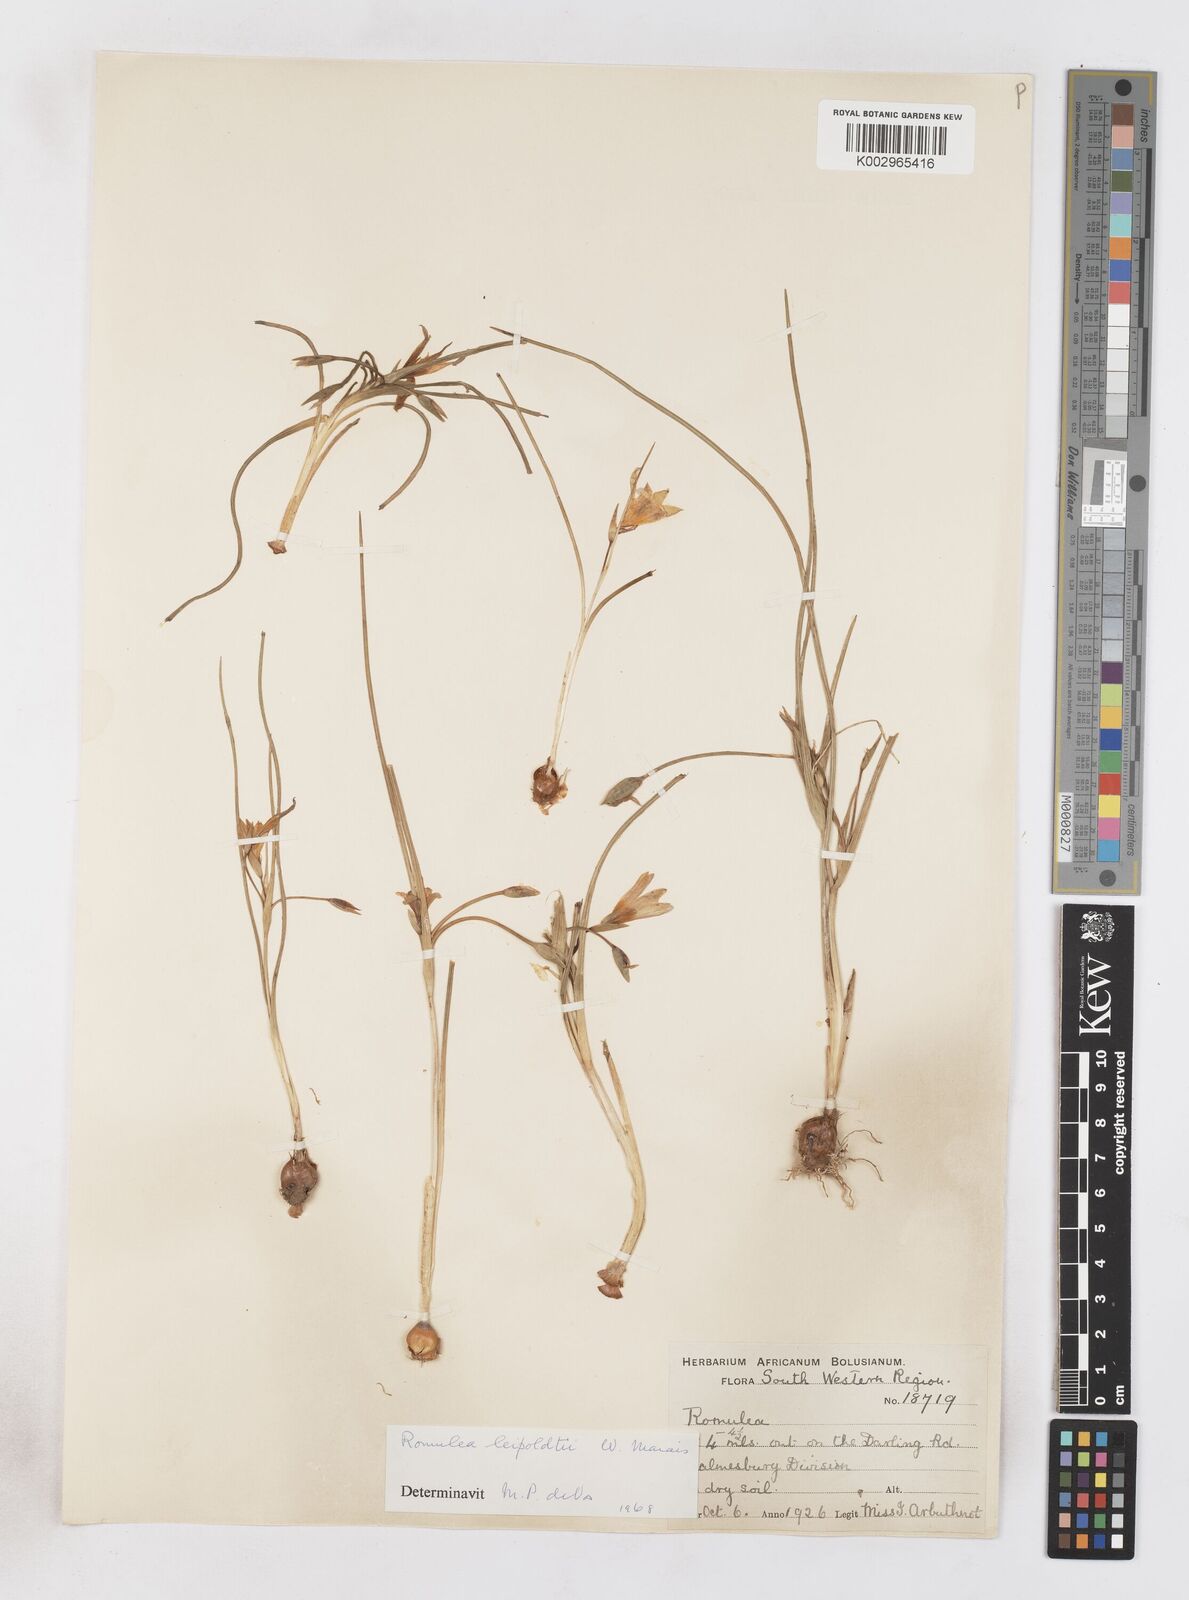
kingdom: Plantae
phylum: Tracheophyta
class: Liliopsida
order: Asparagales
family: Iridaceae
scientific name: Iridaceae
